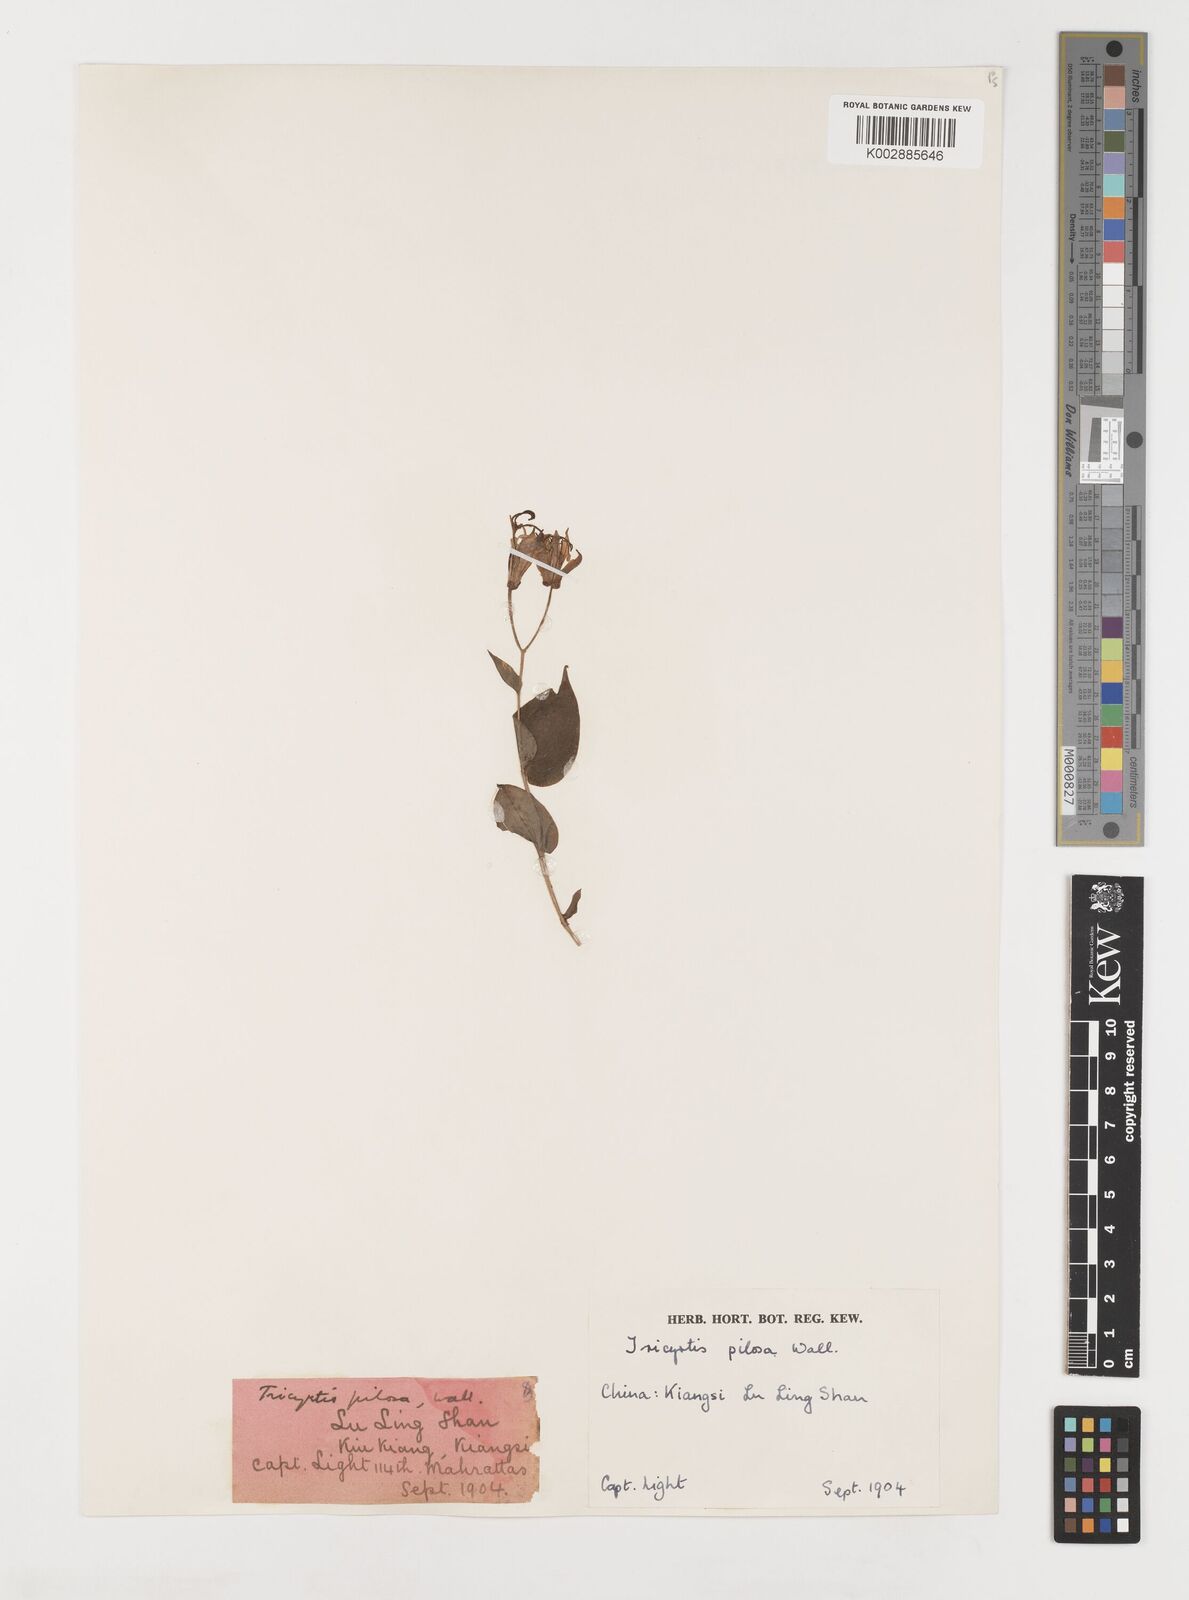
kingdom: Plantae
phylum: Tracheophyta
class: Liliopsida
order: Liliales
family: Liliaceae
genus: Tricyrtis
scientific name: Tricyrtis maculata
